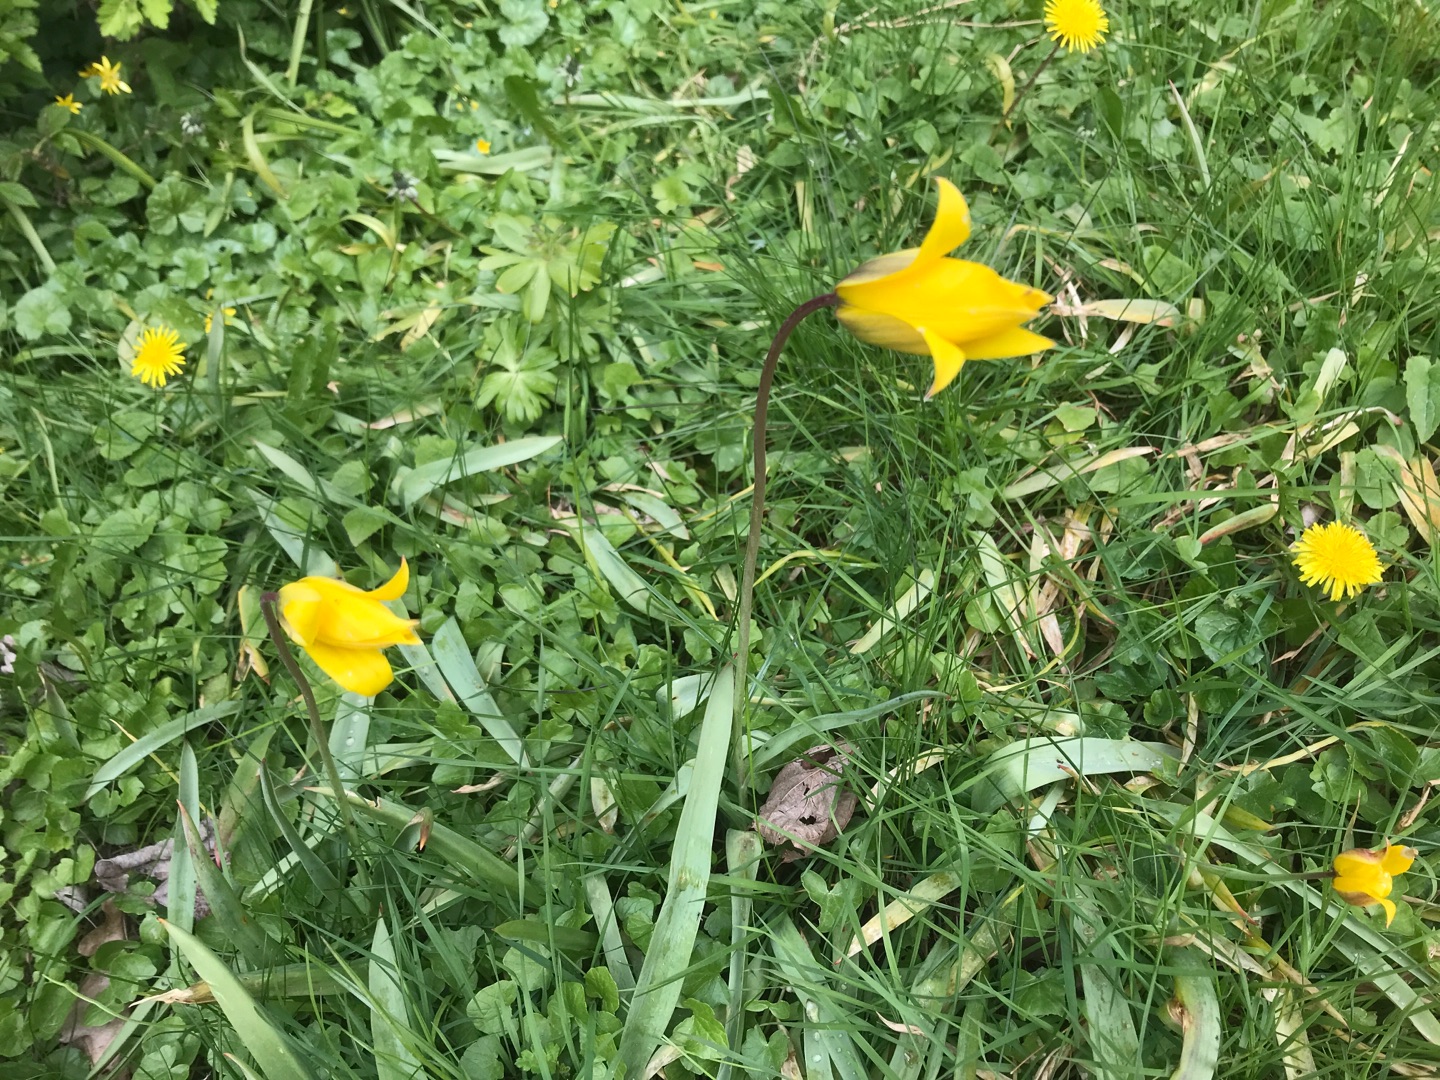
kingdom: Plantae
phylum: Tracheophyta
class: Liliopsida
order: Liliales
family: Liliaceae
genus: Tulipa
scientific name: Tulipa sylvestris
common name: Vild tulipan
